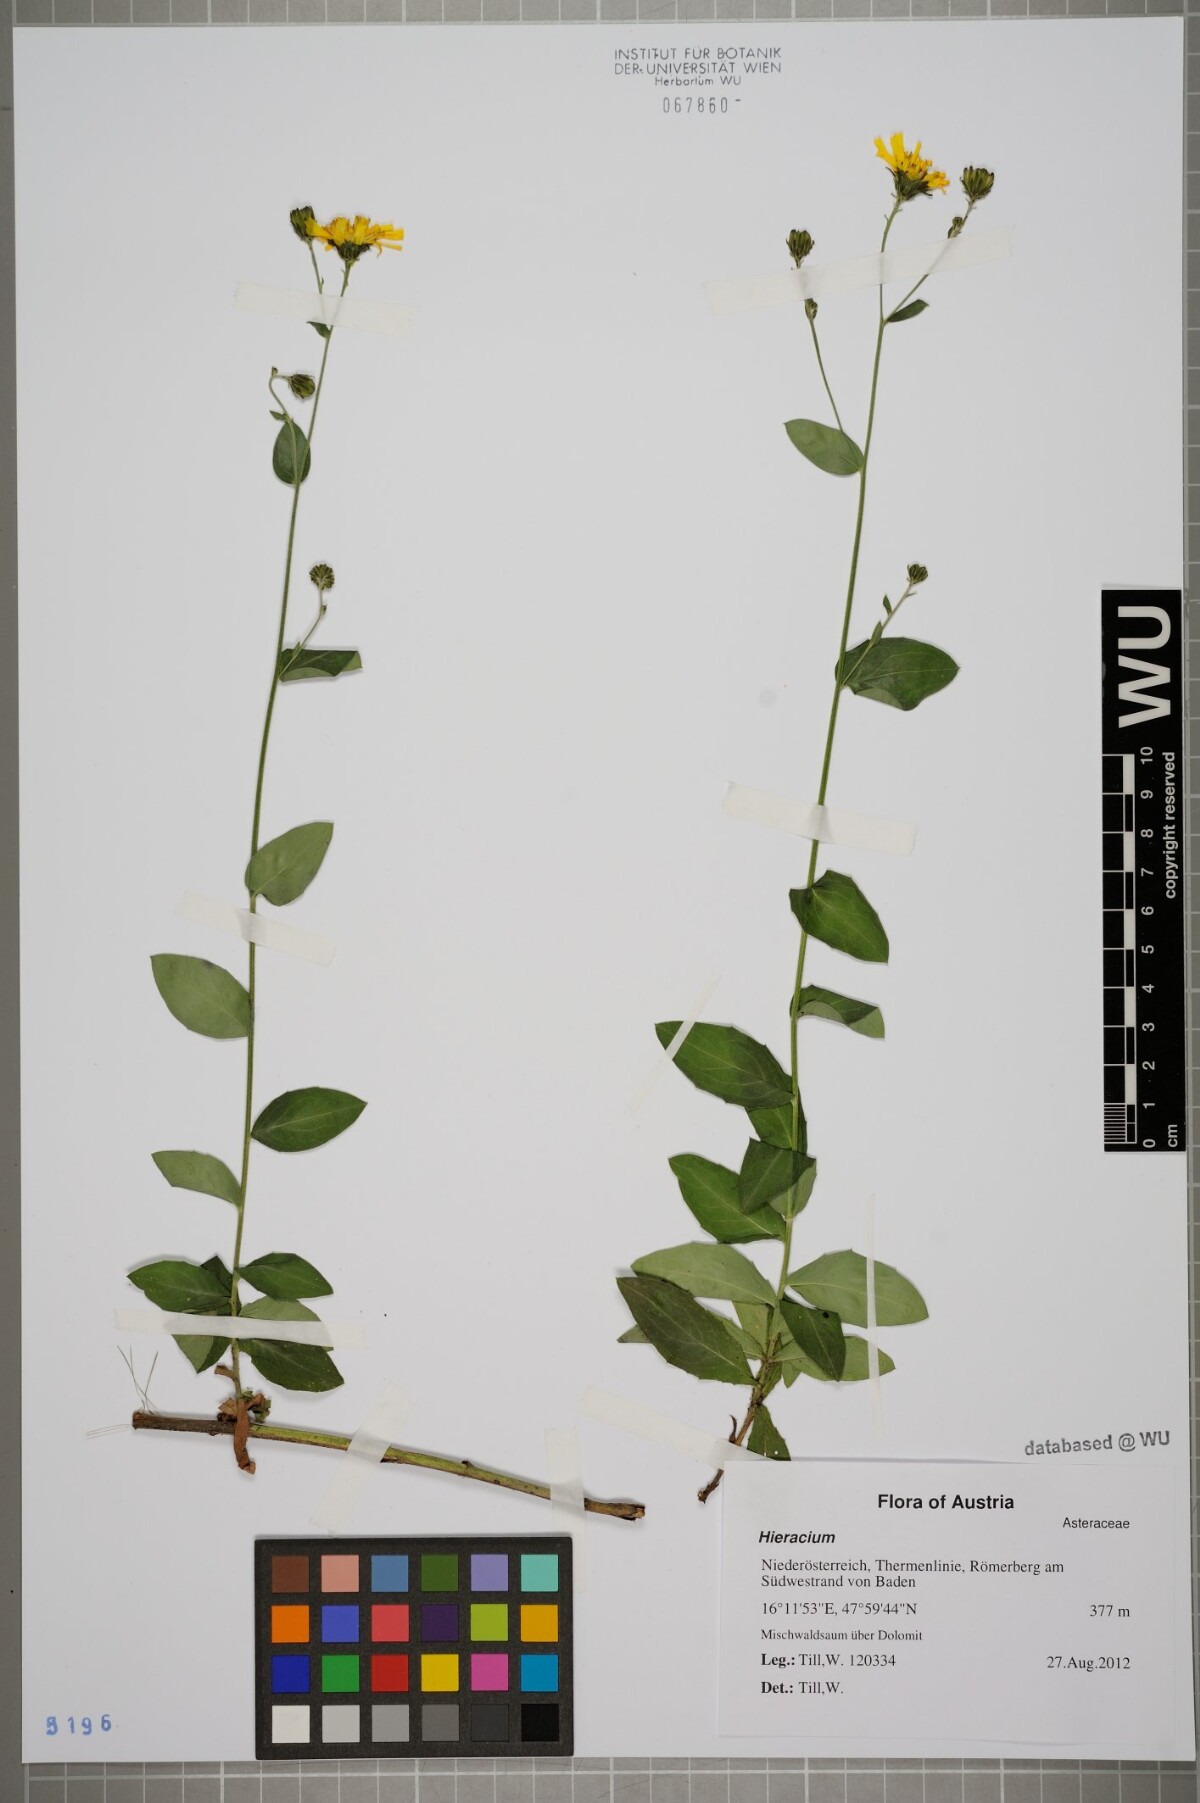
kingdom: Plantae
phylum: Tracheophyta
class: Magnoliopsida
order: Asterales
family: Asteraceae
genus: Hieracium
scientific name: Hieracium sabaudum
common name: New england hawkweed
